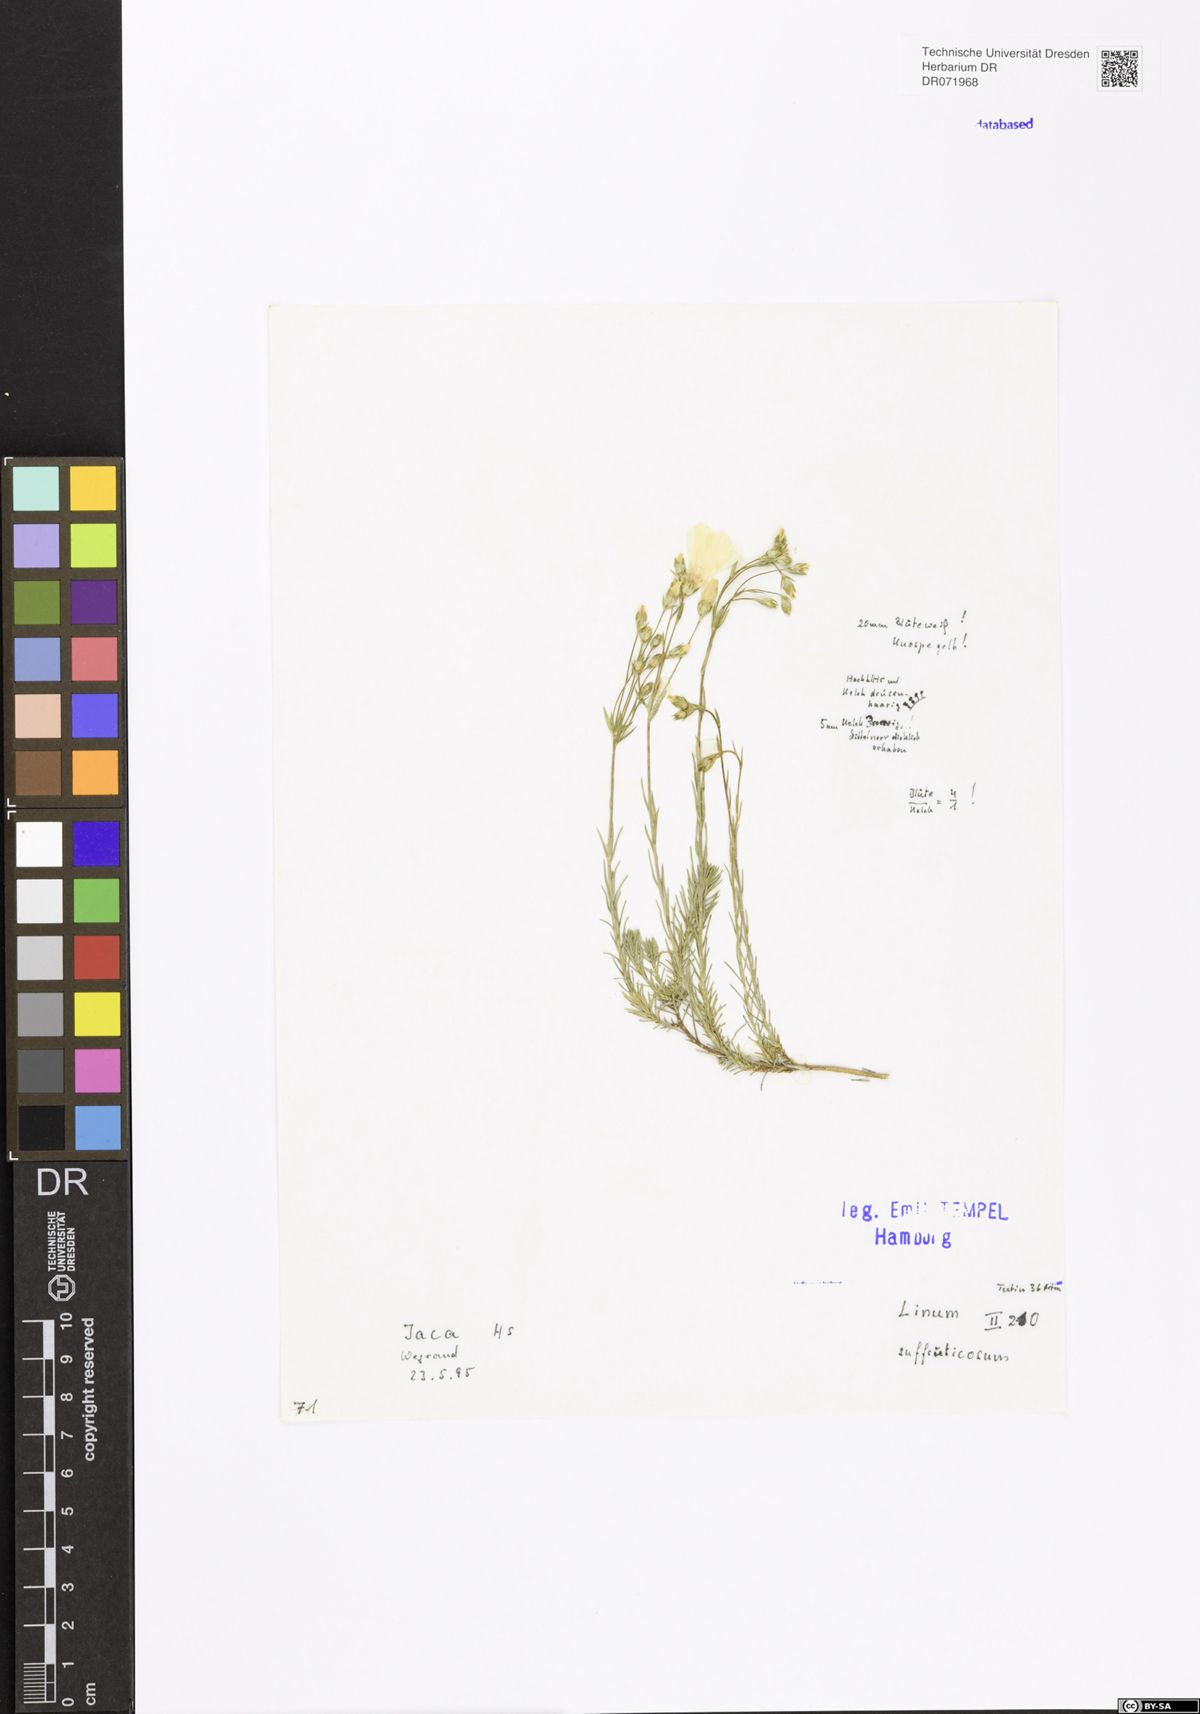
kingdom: Plantae
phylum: Tracheophyta
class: Magnoliopsida
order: Malpighiales
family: Linaceae
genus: Linum
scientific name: Linum suffruticosum
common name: White flax
